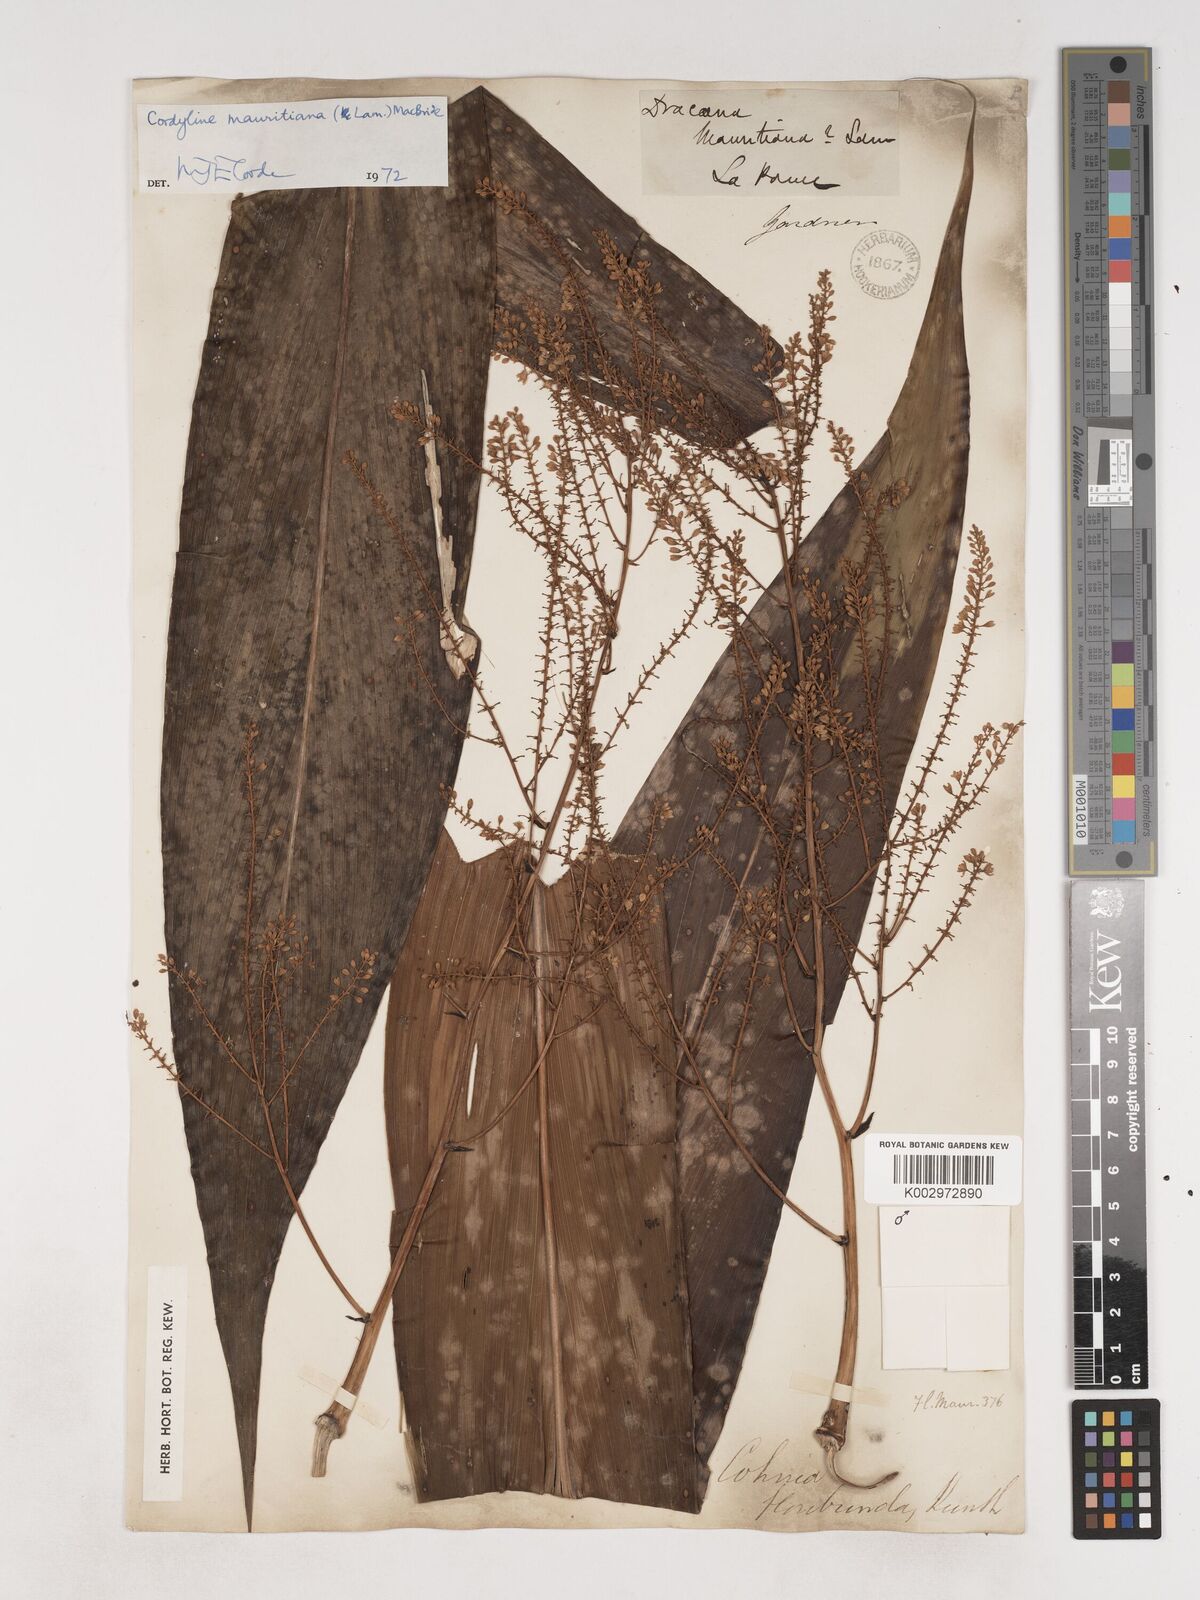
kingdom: Plantae
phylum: Tracheophyta
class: Liliopsida
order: Asparagales
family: Asparagaceae
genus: Cordyline
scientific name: Cordyline mauritiana
